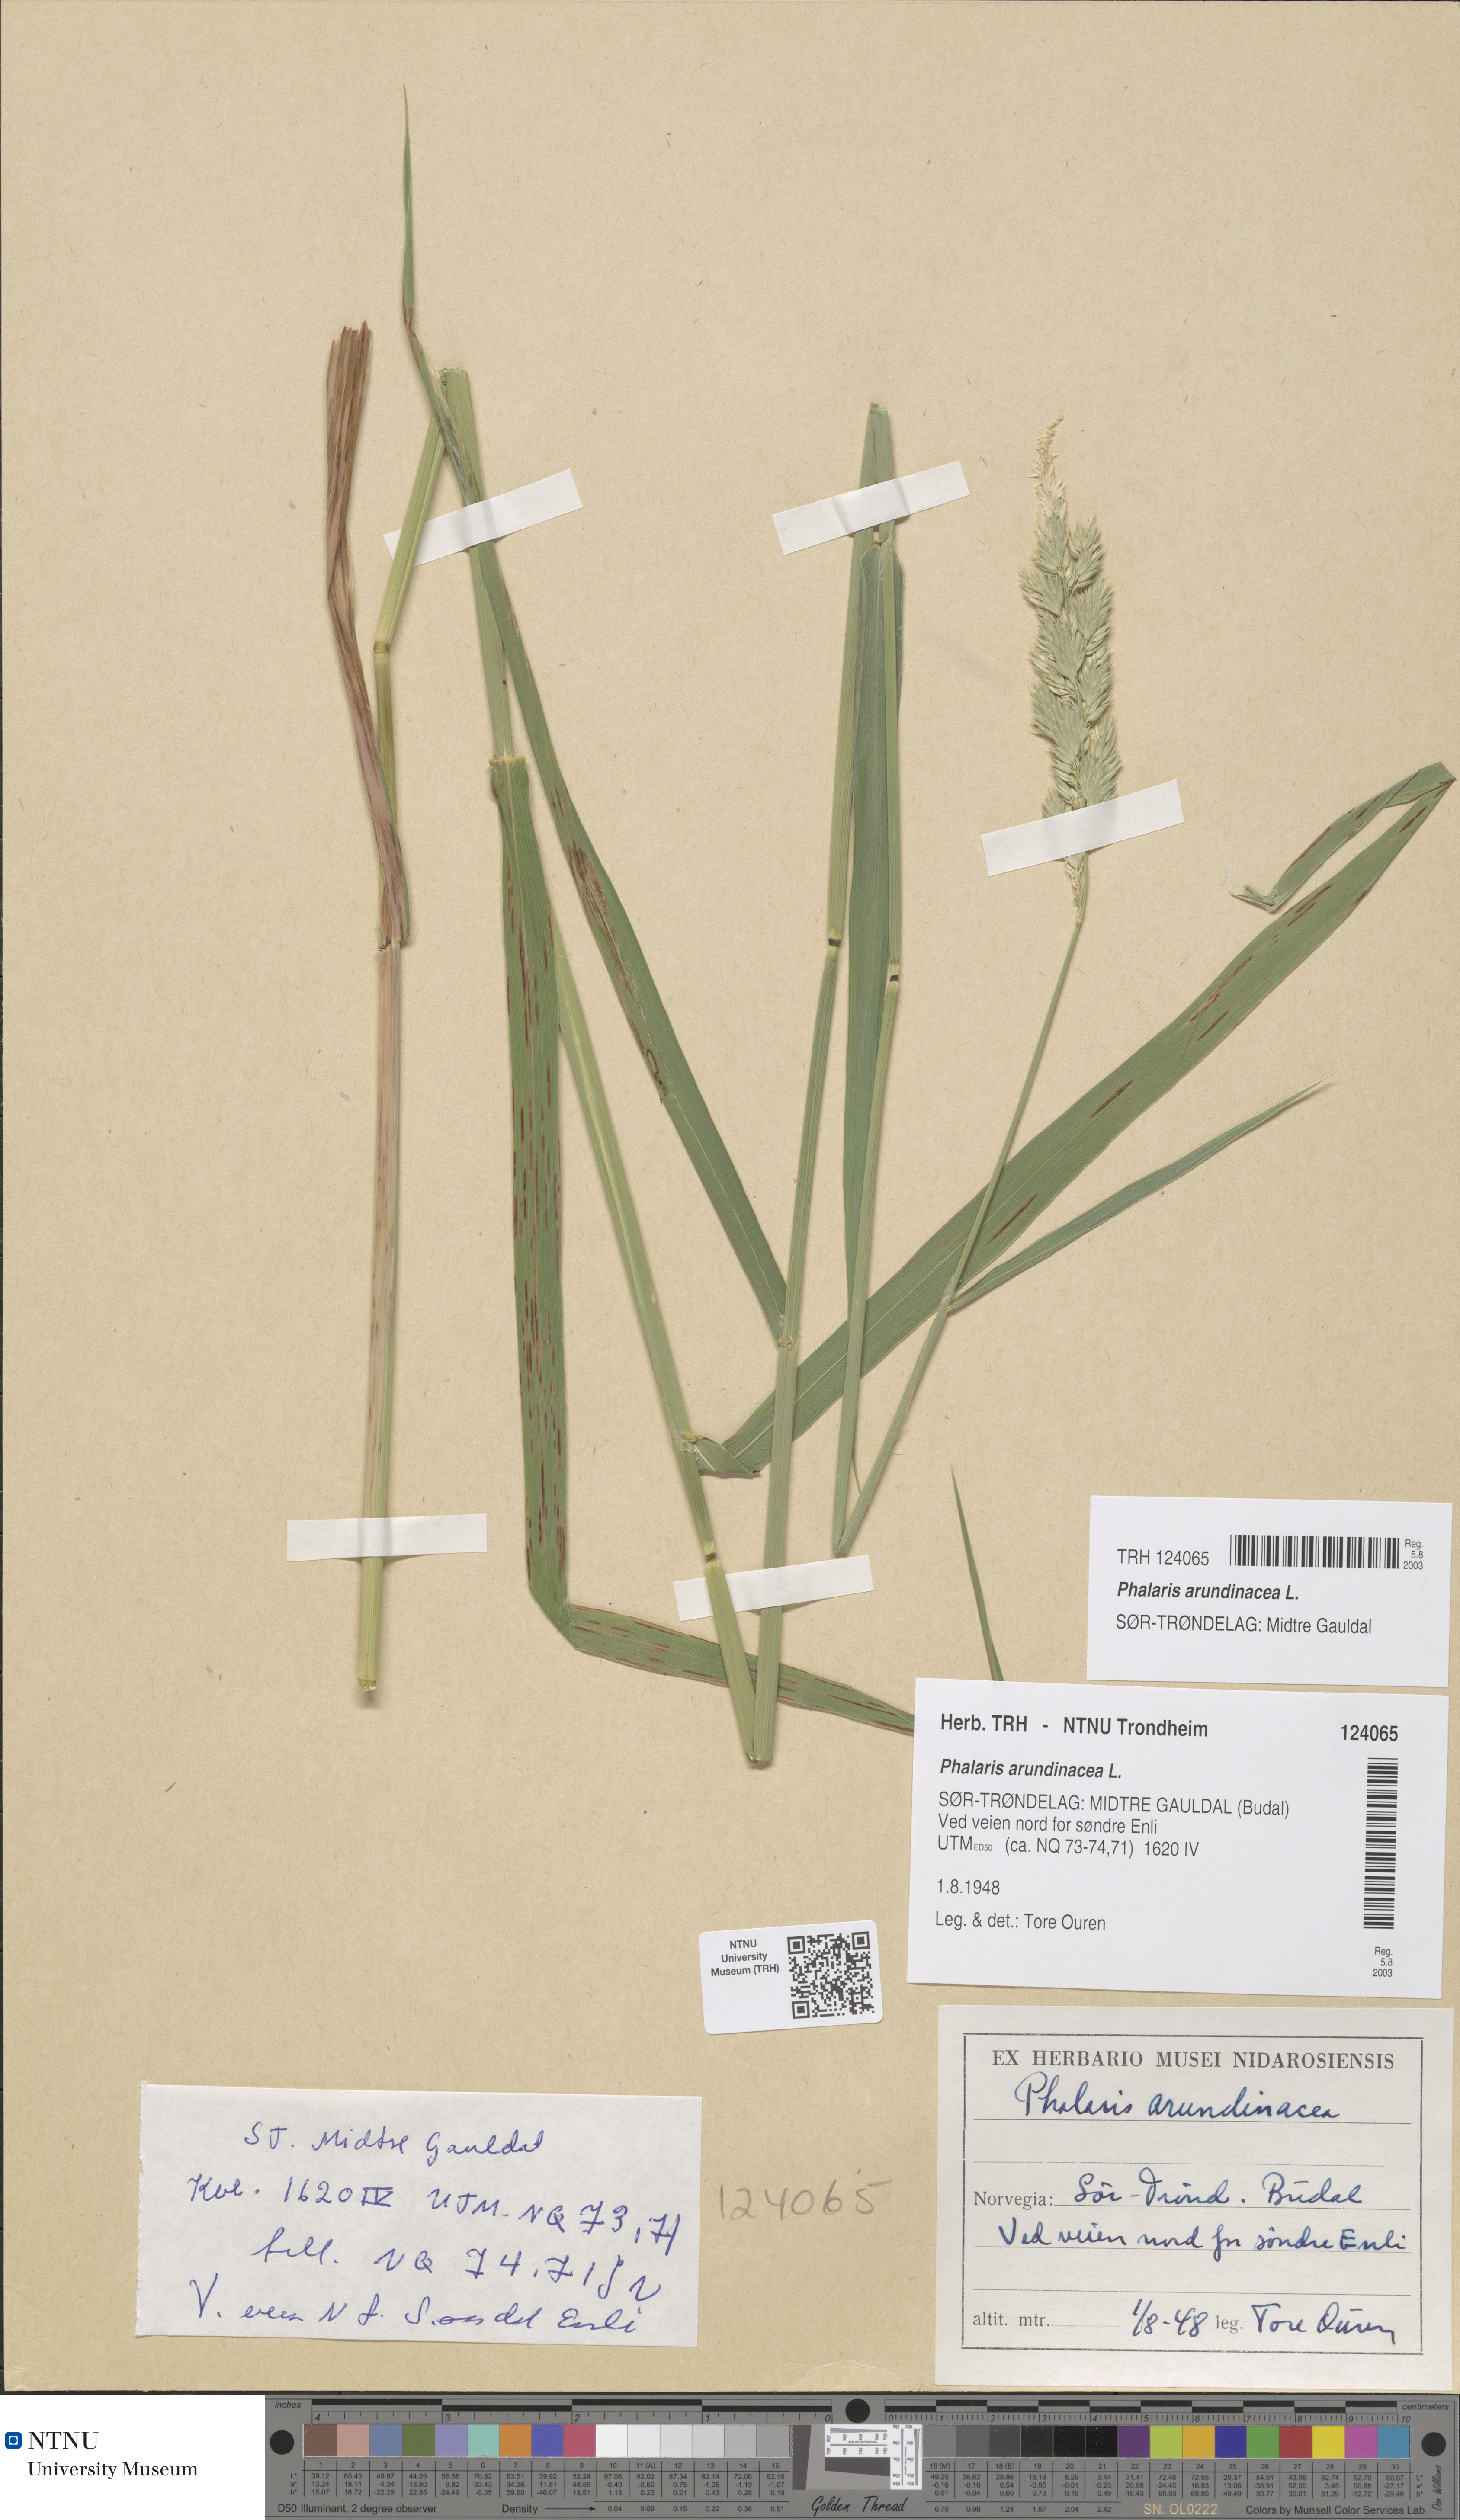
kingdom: Plantae
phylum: Tracheophyta
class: Liliopsida
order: Poales
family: Poaceae
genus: Phalaris
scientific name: Phalaris arundinacea
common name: Reed canary-grass
